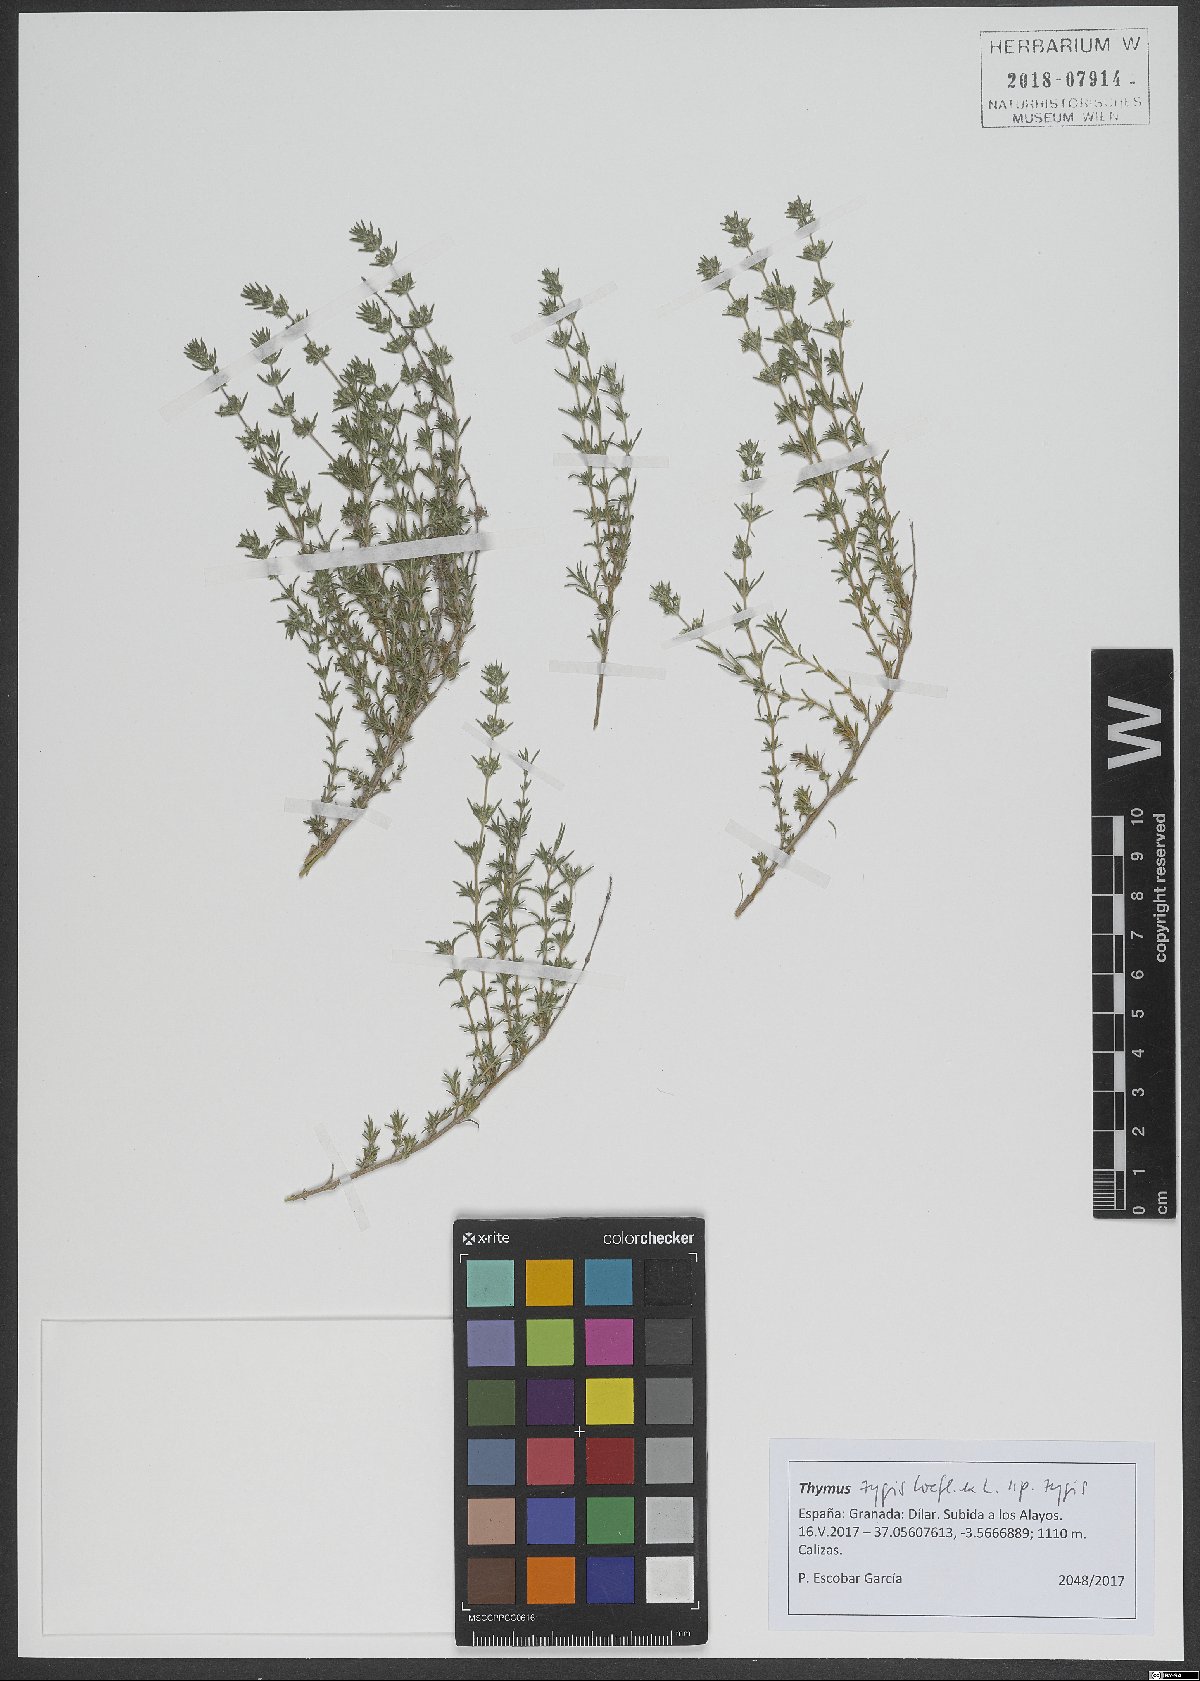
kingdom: Plantae
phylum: Tracheophyta
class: Magnoliopsida
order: Lamiales
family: Lamiaceae
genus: Thymus
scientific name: Thymus zygis
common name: White thyme
